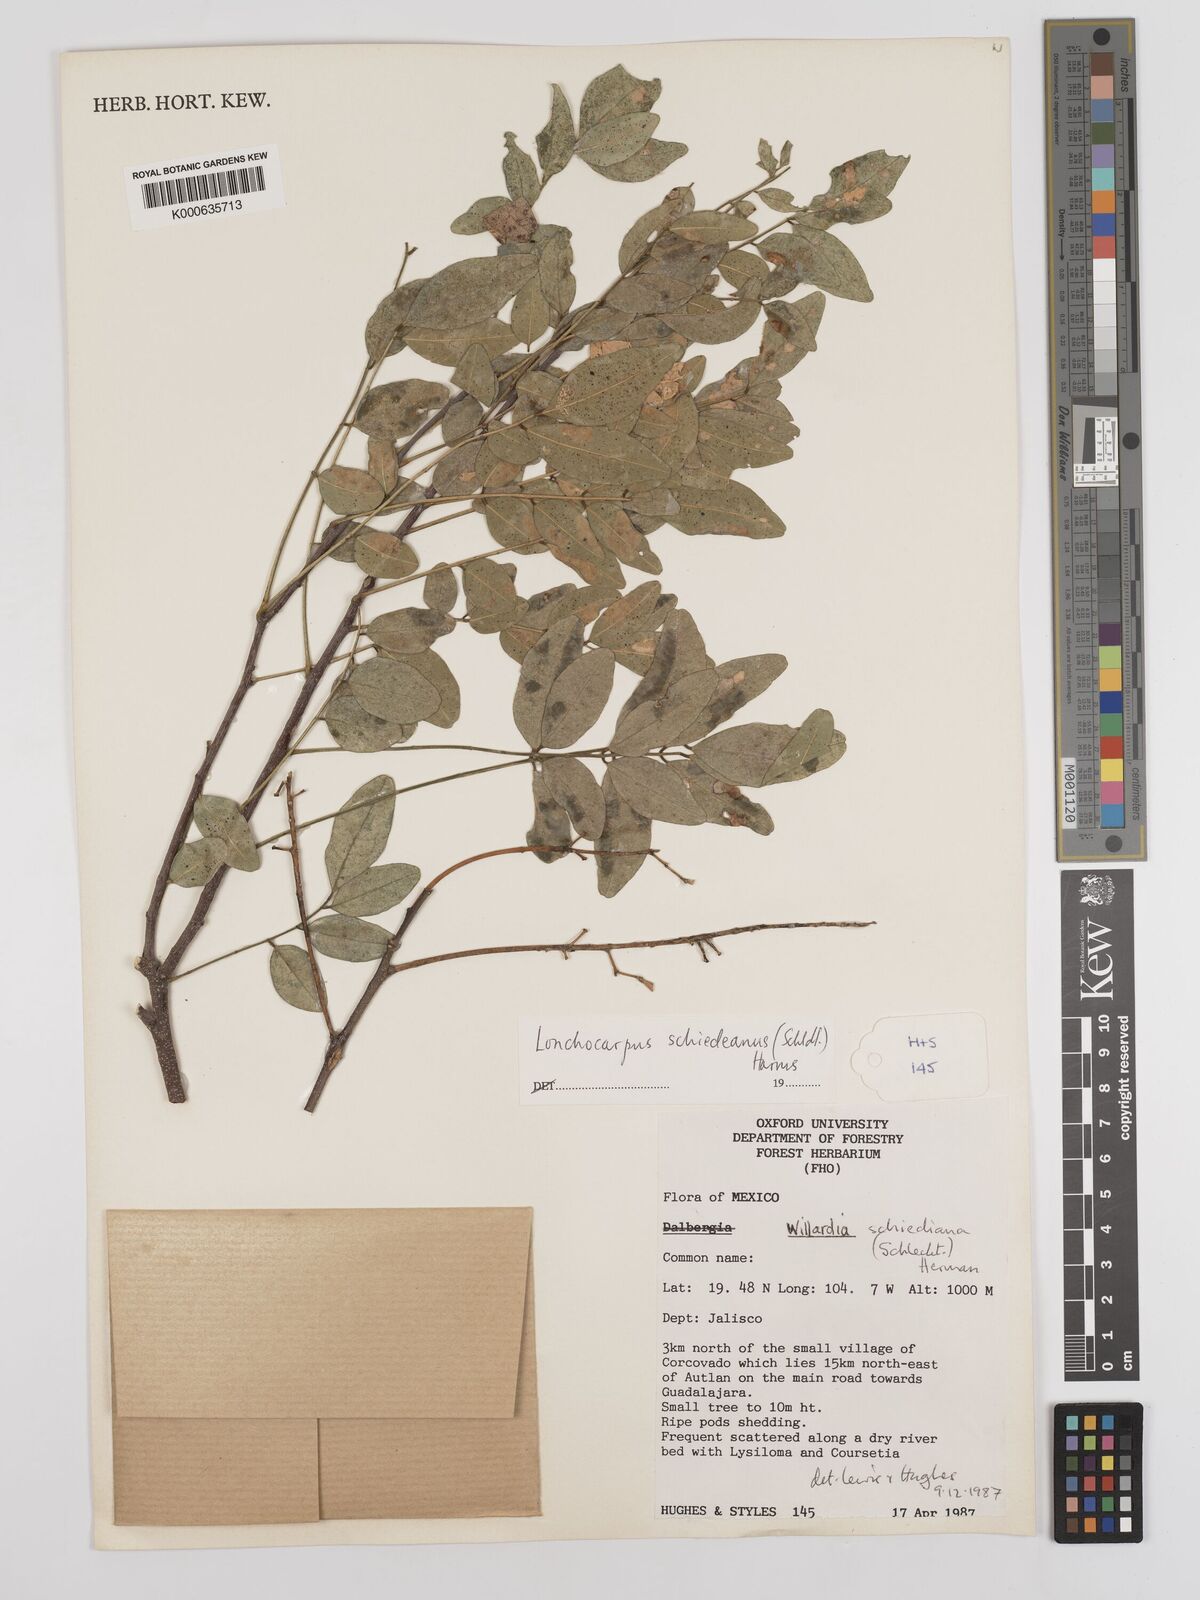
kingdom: Plantae
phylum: Tracheophyta
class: Magnoliopsida
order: Fabales
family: Fabaceae
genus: Lonchocarpus
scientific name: Lonchocarpus schiedeanus
